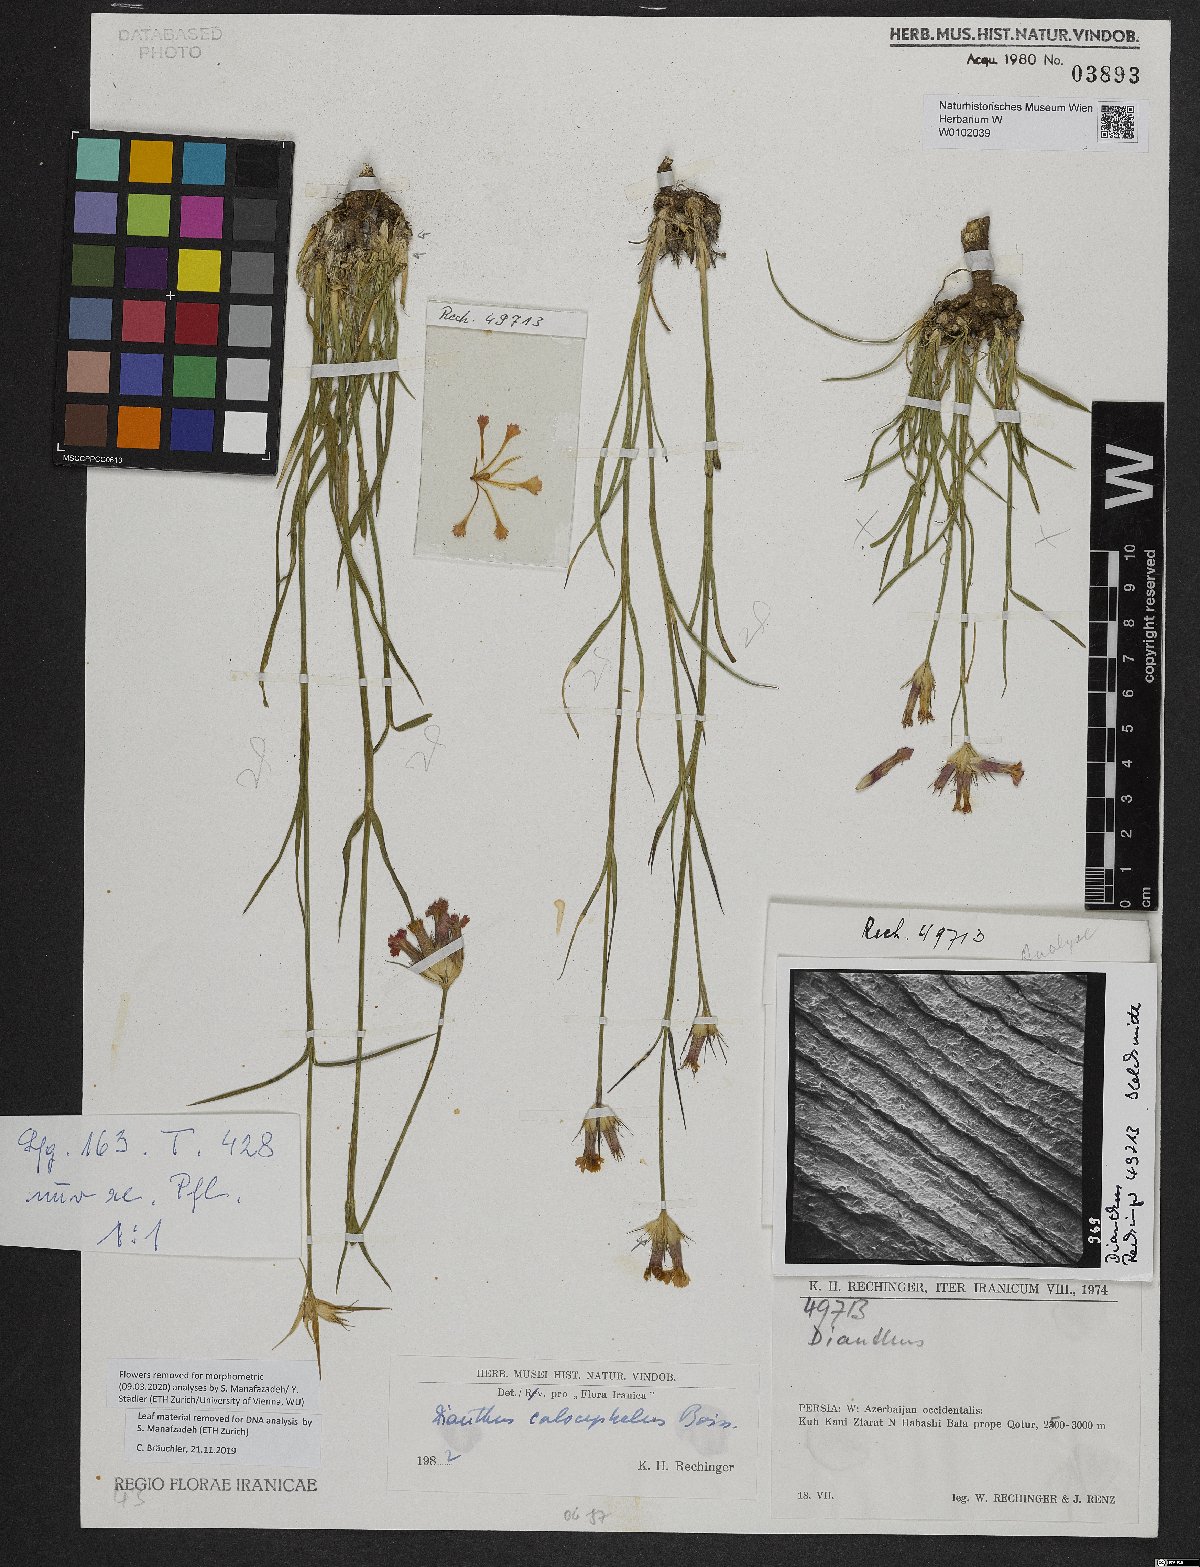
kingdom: Plantae
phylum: Tracheophyta
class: Magnoliopsida
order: Caryophyllales
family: Caryophyllaceae
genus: Dianthus
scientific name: Dianthus cruentus
